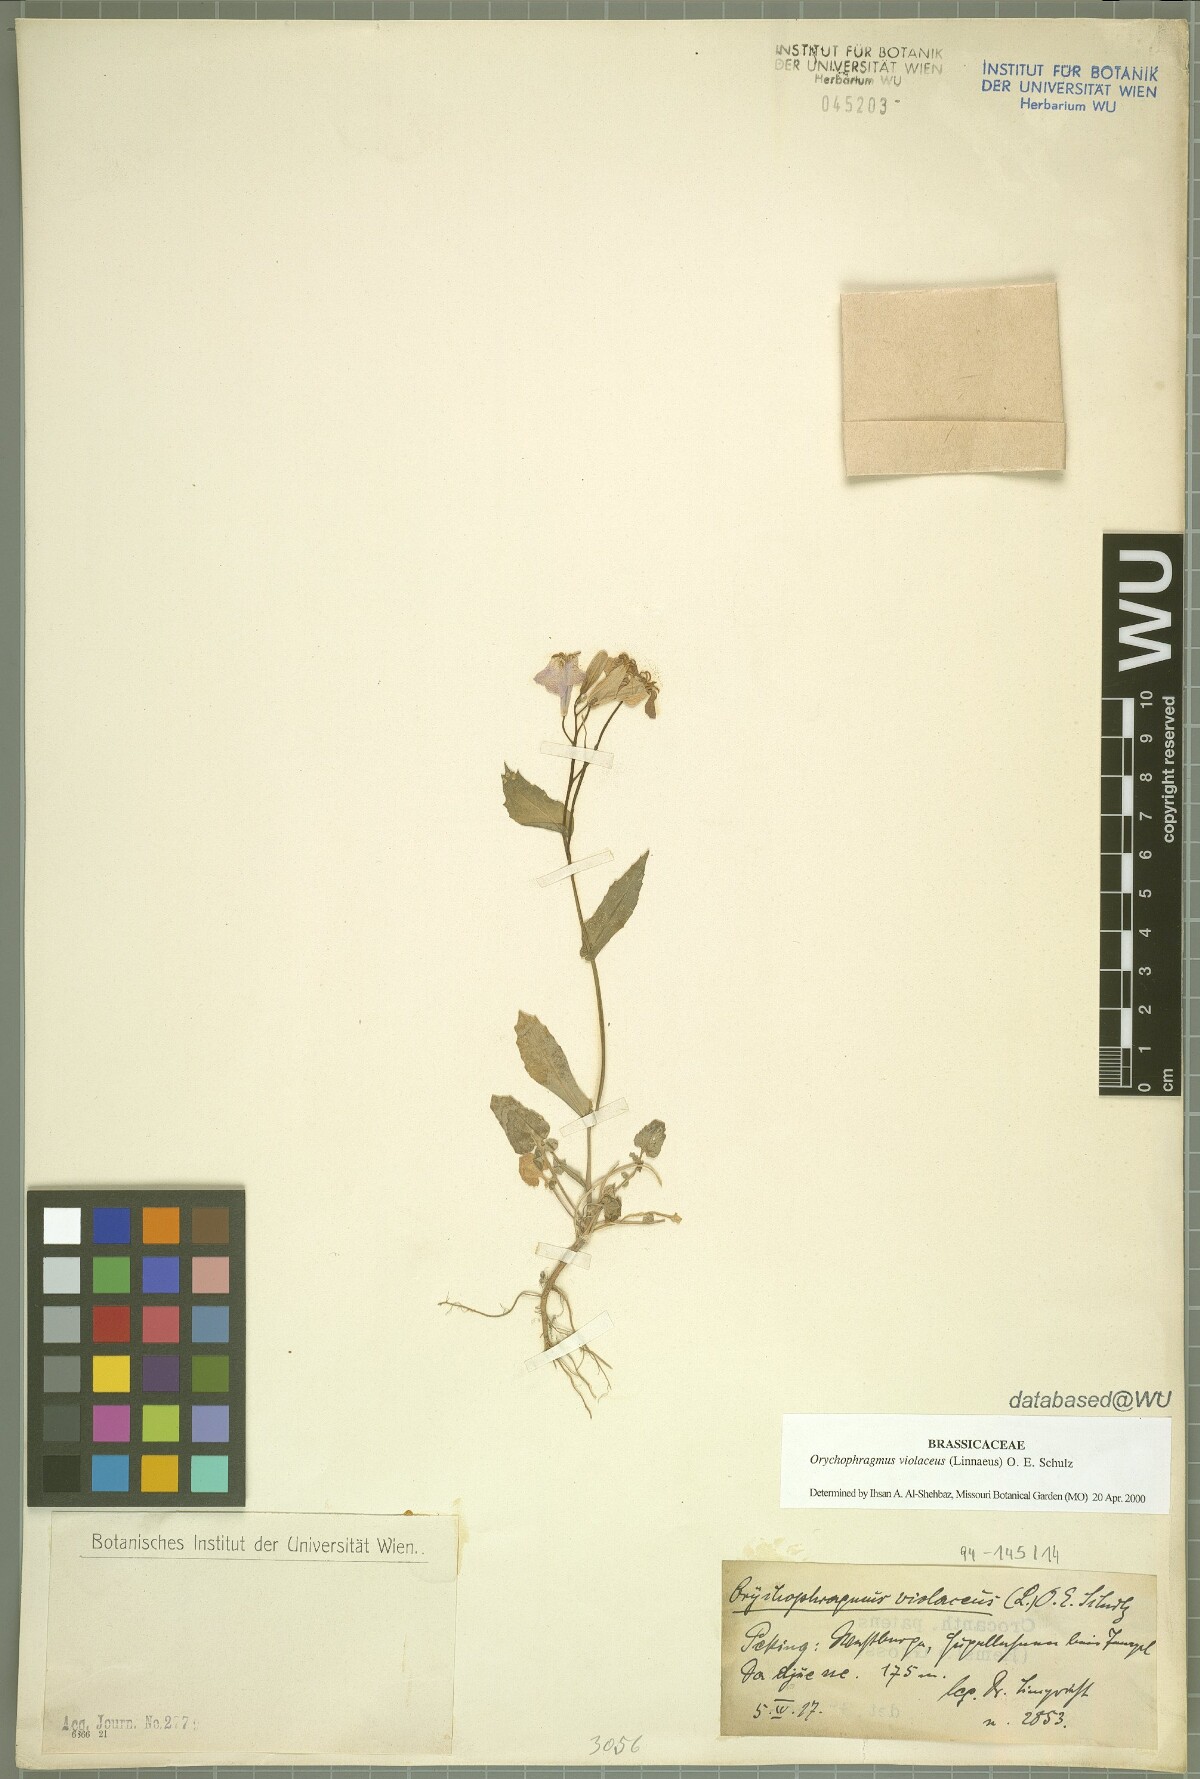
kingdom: Plantae
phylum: Tracheophyta
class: Magnoliopsida
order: Brassicales
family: Brassicaceae
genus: Orychophragmus
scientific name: Orychophragmus violaceus
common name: Mustard
